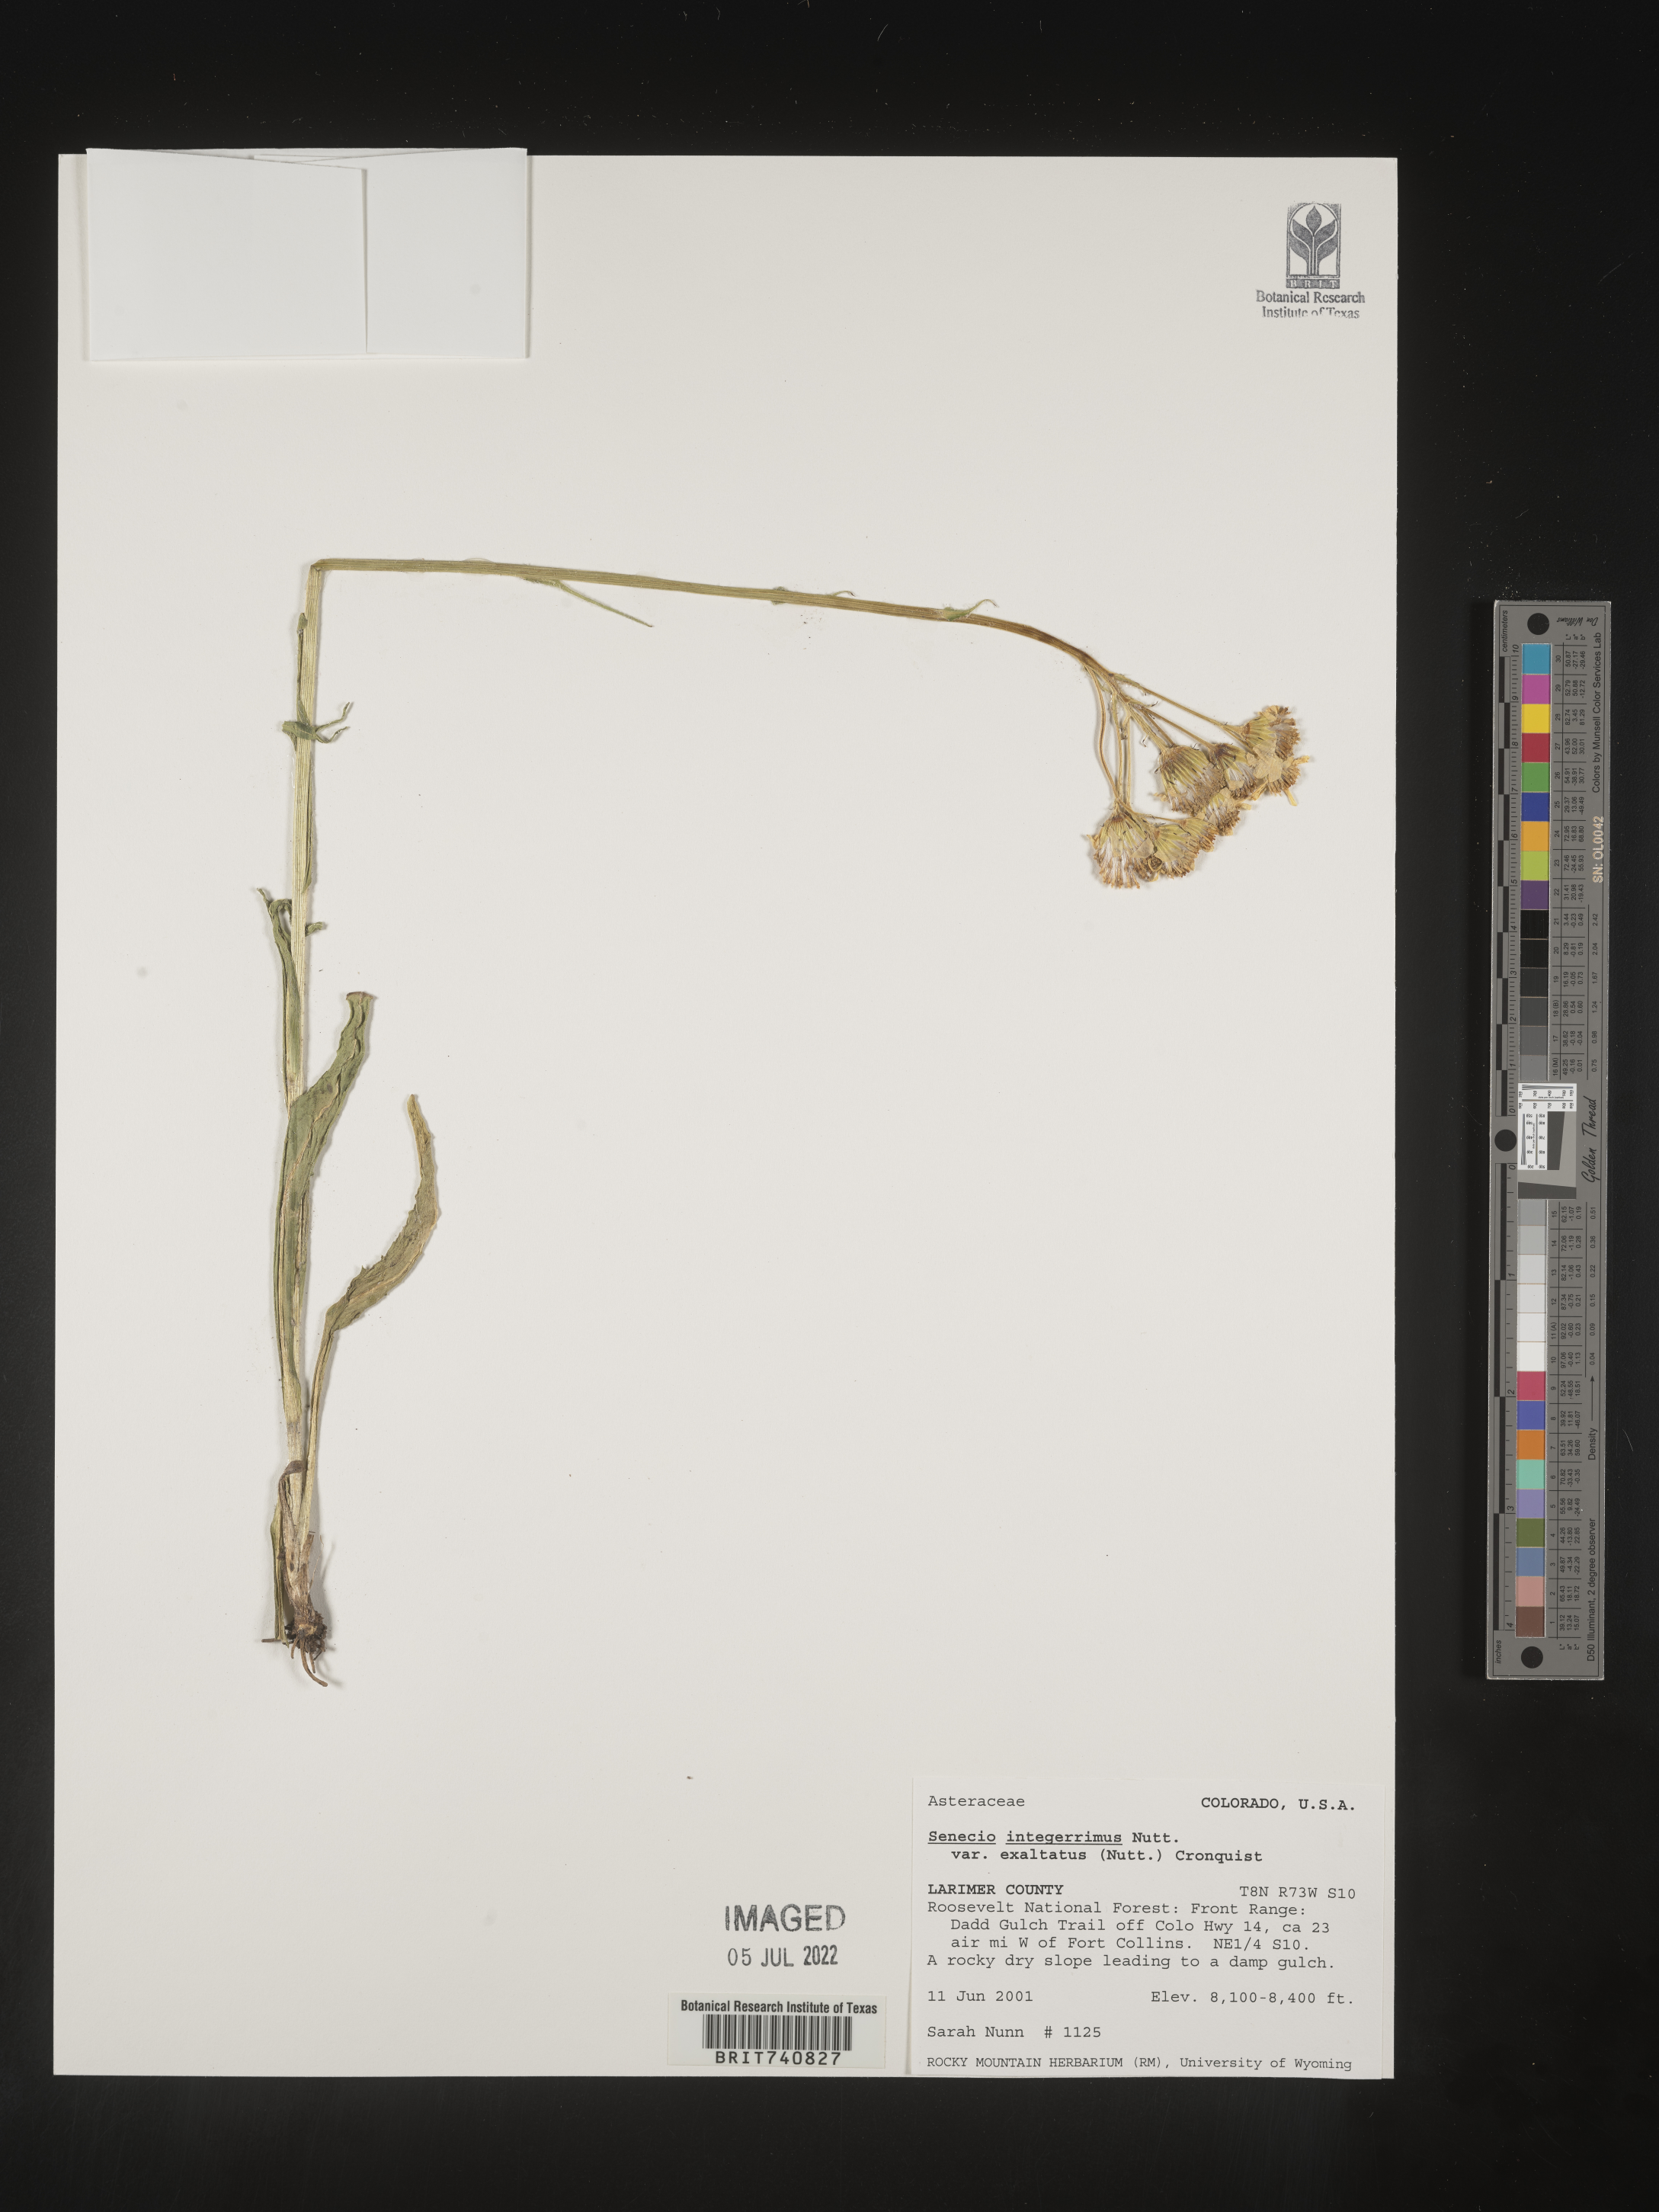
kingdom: Plantae
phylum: Tracheophyta
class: Magnoliopsida
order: Asterales
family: Asteraceae
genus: Senecio
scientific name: Senecio integerrimus
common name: Gaugeplant
